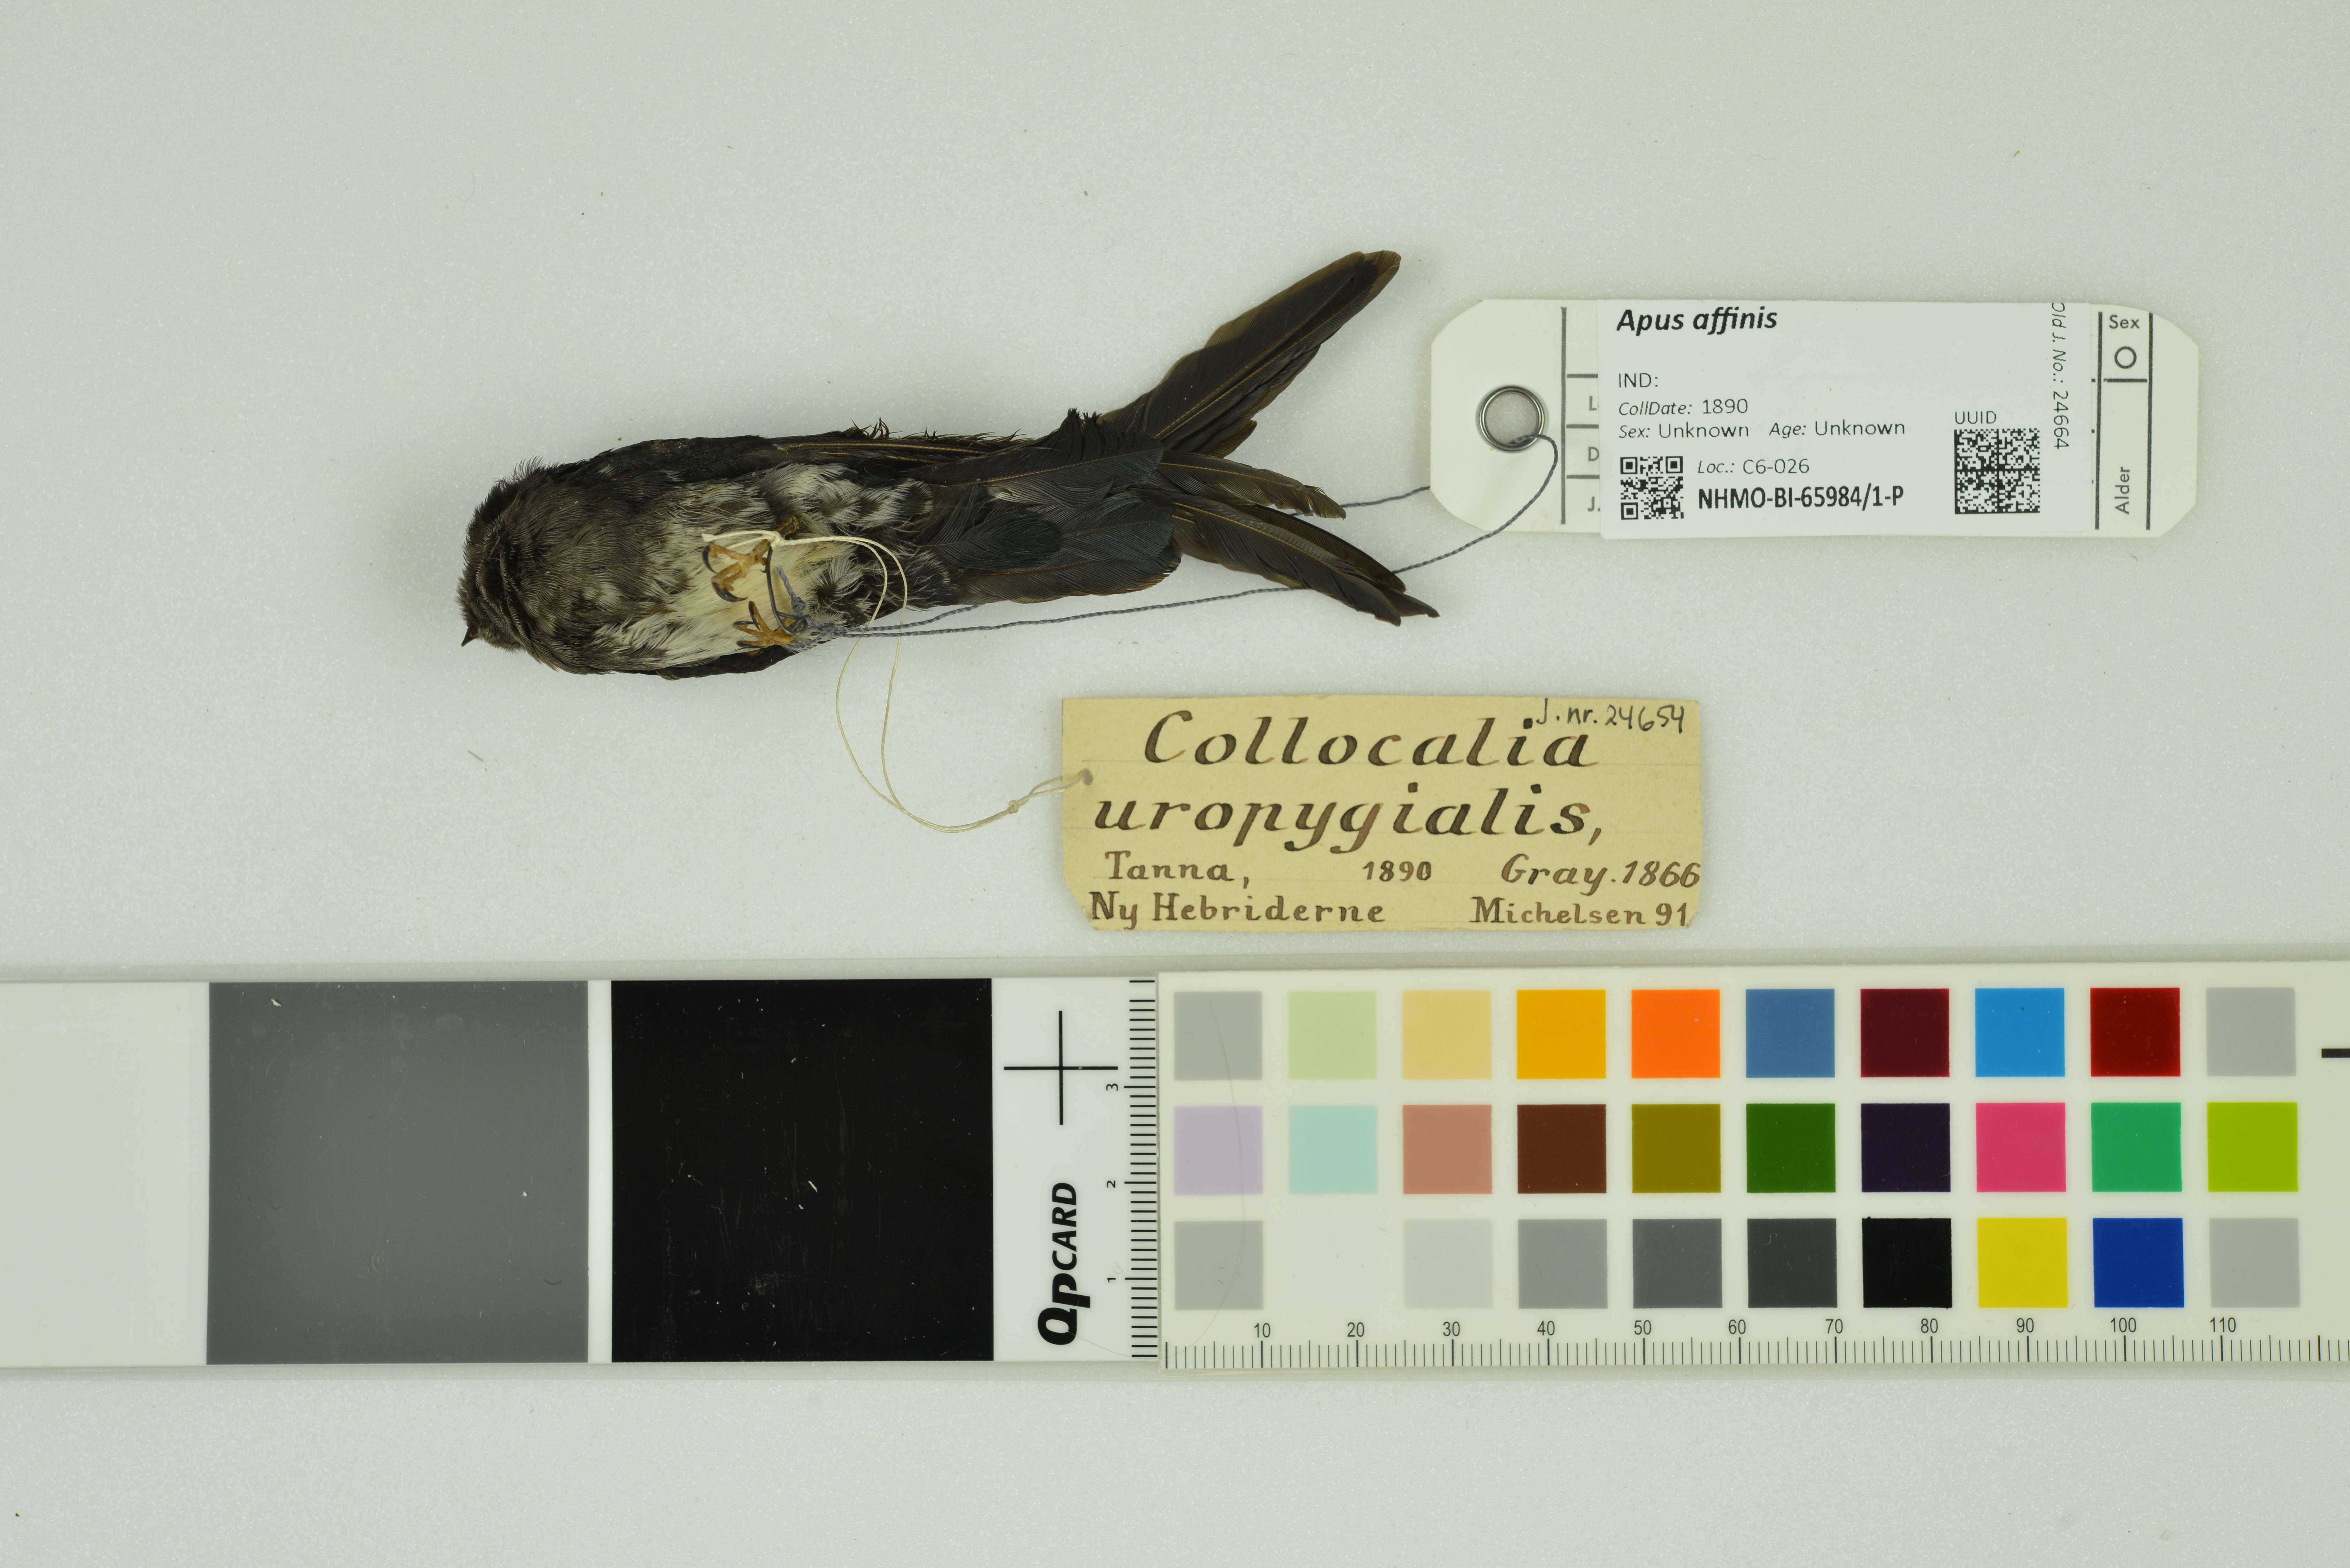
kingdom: Animalia
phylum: Chordata
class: Aves
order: Apodiformes
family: Apodidae
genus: Collocalia
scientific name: Collocalia uropygialis
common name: Satin swiftlet
